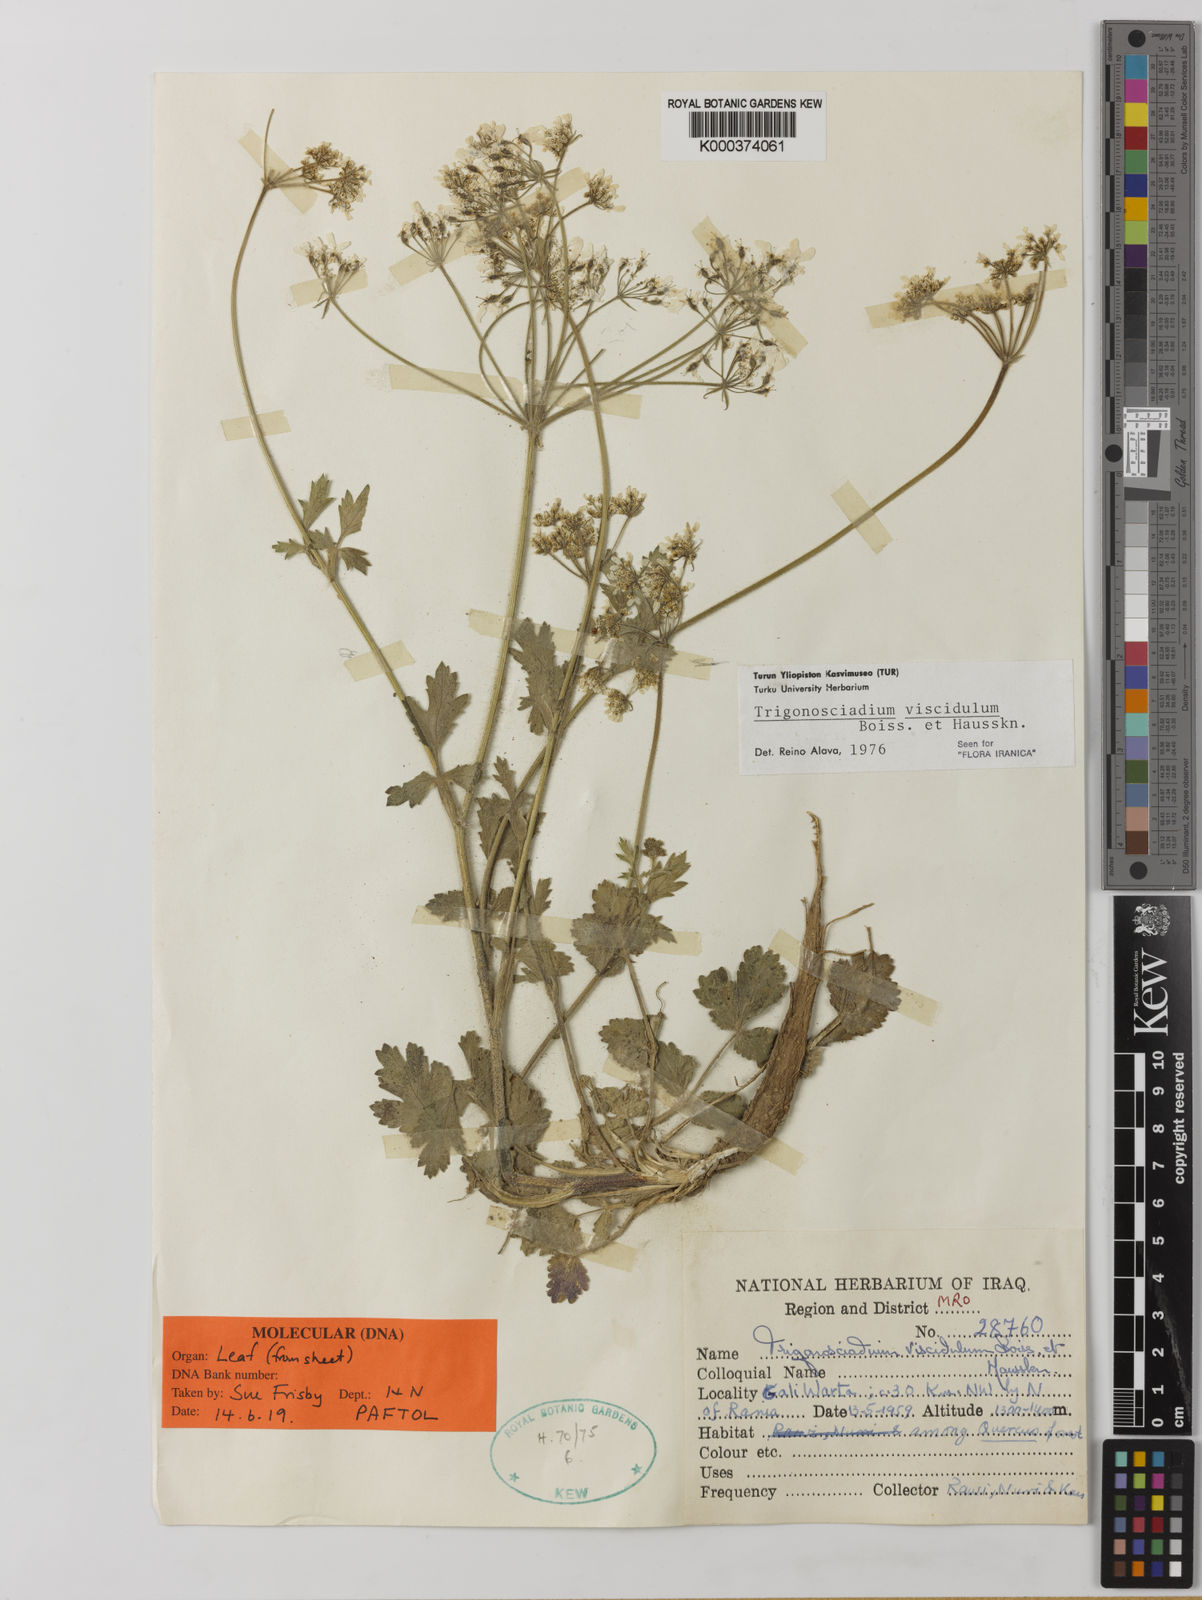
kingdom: Plantae
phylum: Tracheophyta
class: Magnoliopsida
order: Apiales
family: Apiaceae
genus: Trigonosciadium
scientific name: Trigonosciadium viscidulum
